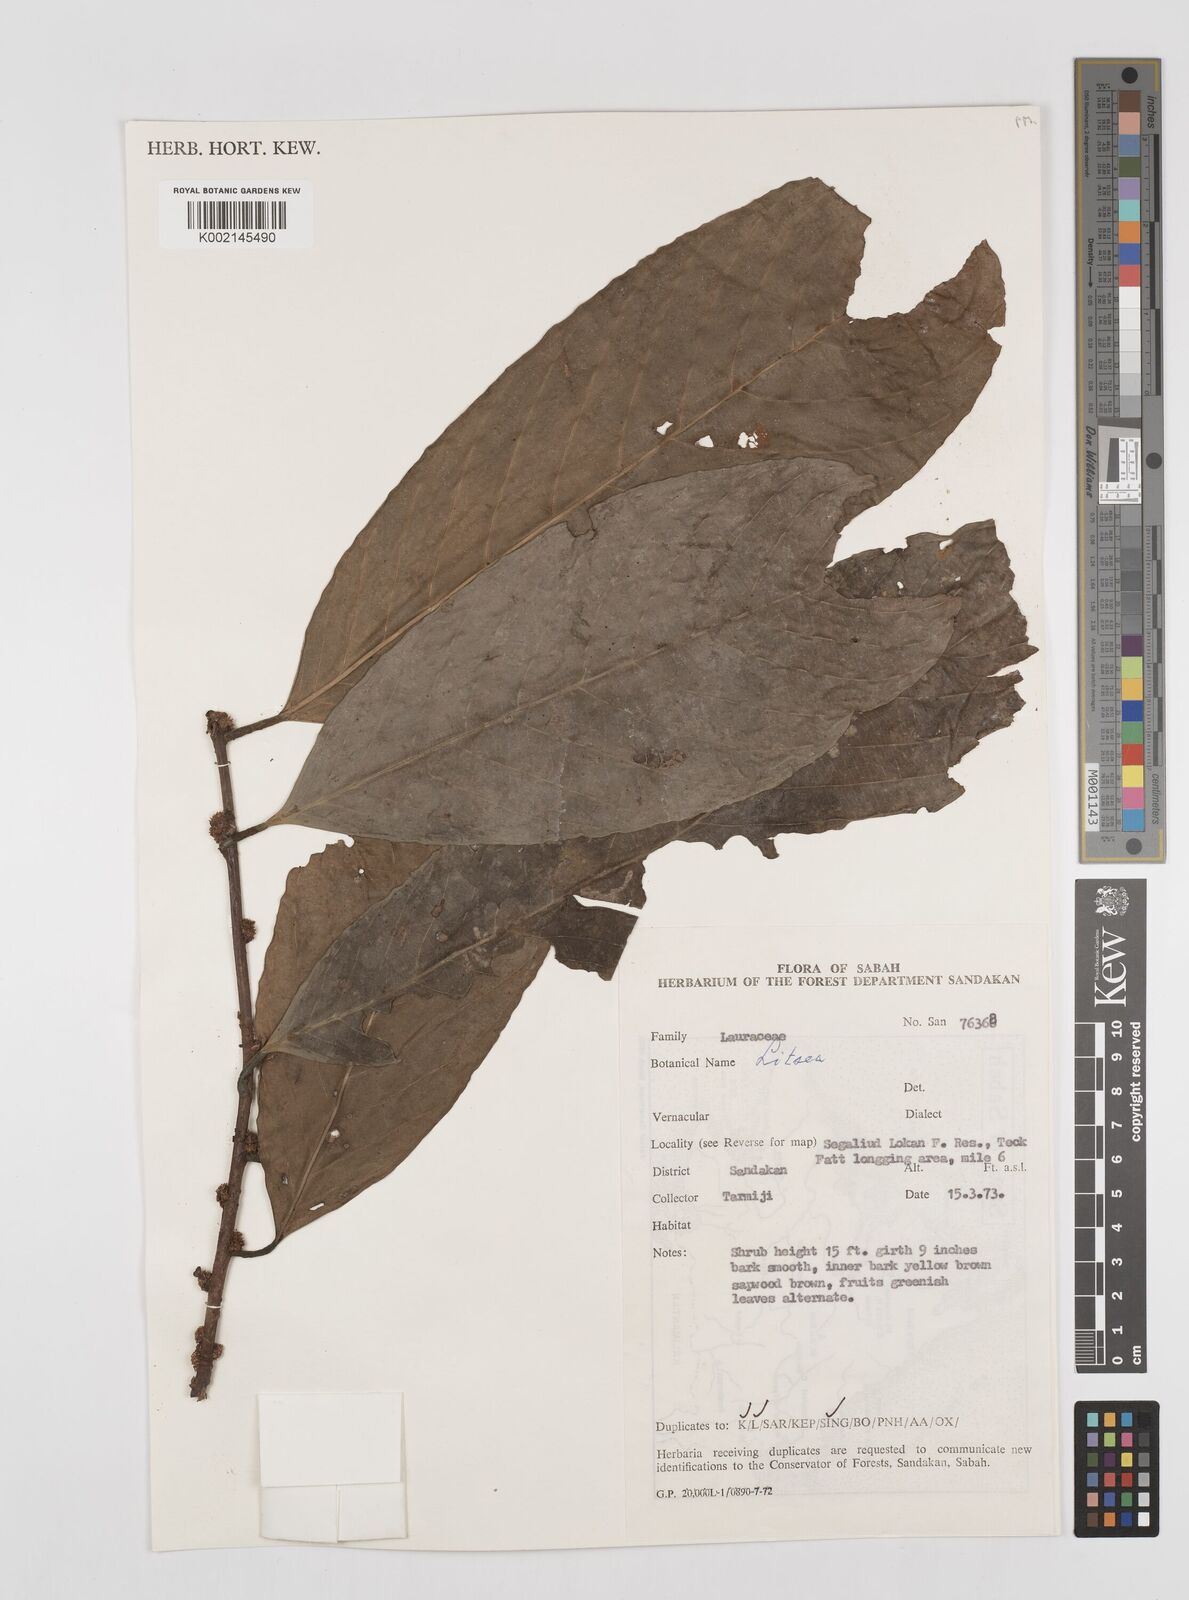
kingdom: Plantae
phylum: Tracheophyta
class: Magnoliopsida
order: Laurales
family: Lauraceae
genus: Litsea
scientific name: Litsea
